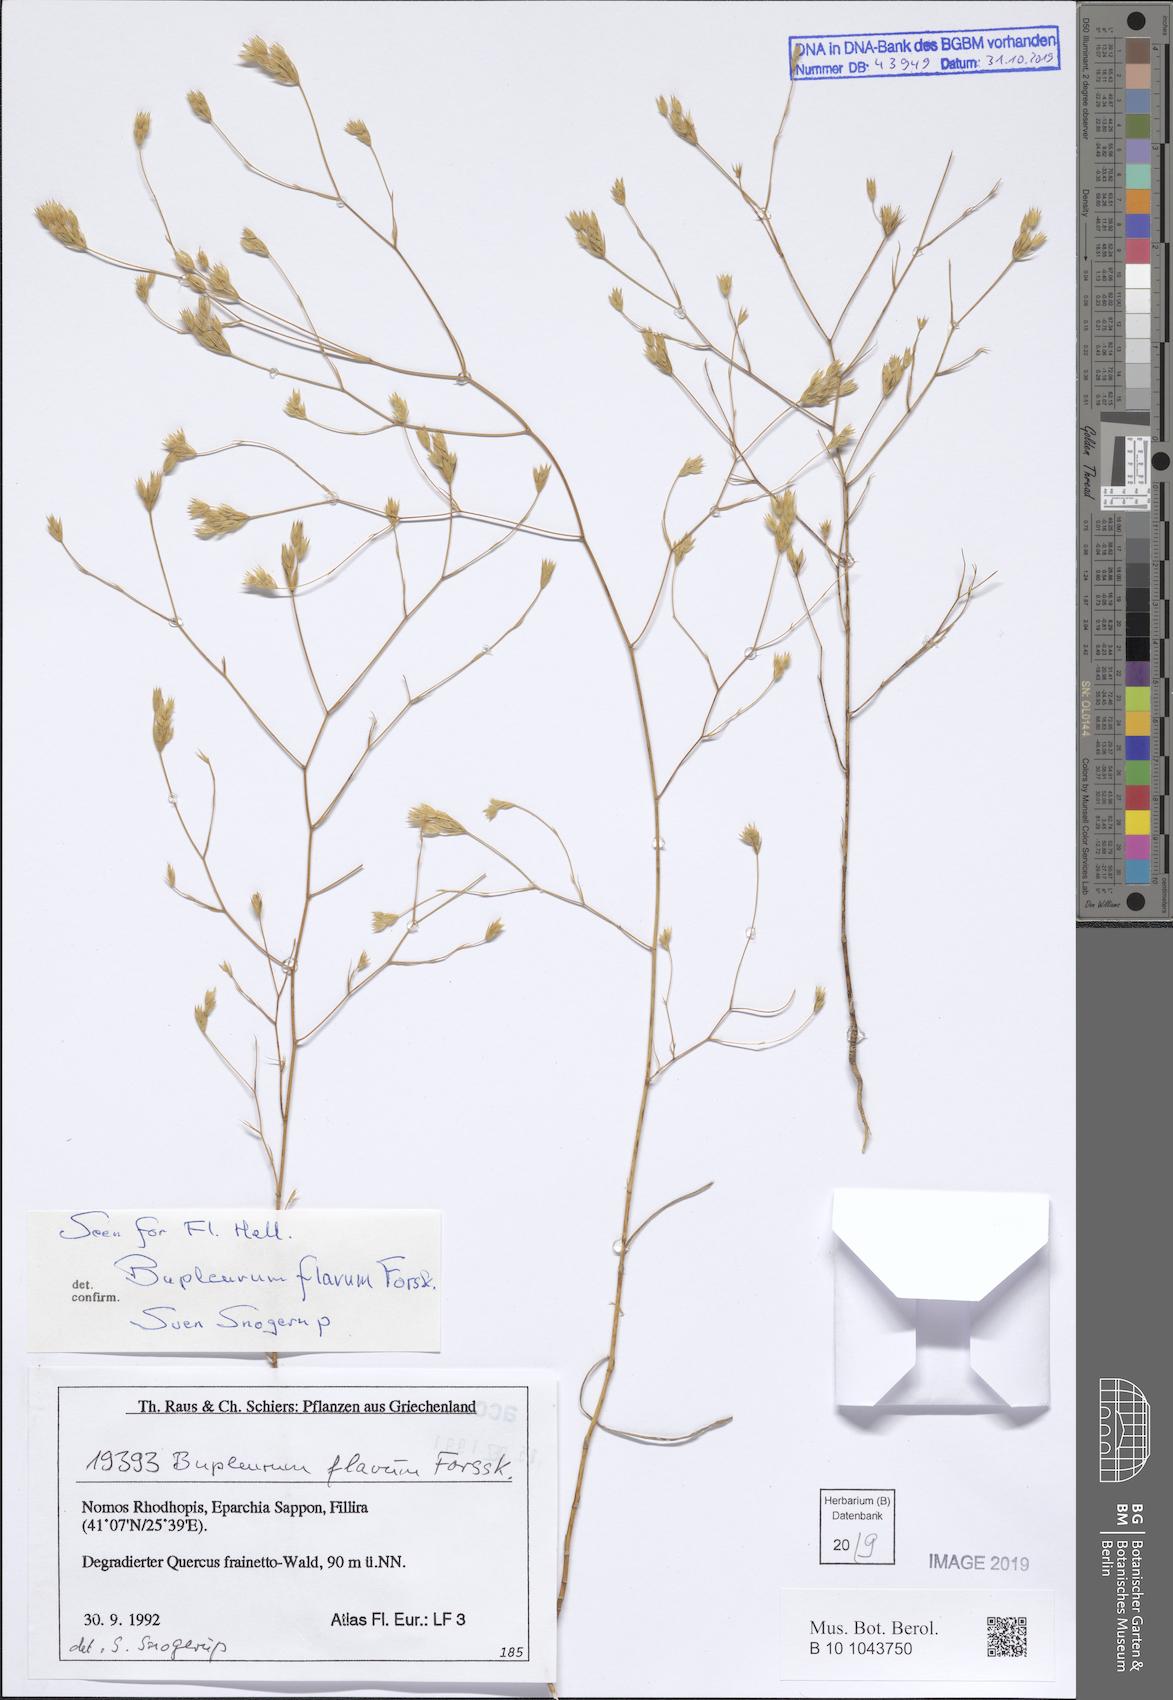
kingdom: Plantae
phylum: Tracheophyta
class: Magnoliopsida
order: Apiales
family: Apiaceae
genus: Bupleurum
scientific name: Bupleurum flavum
